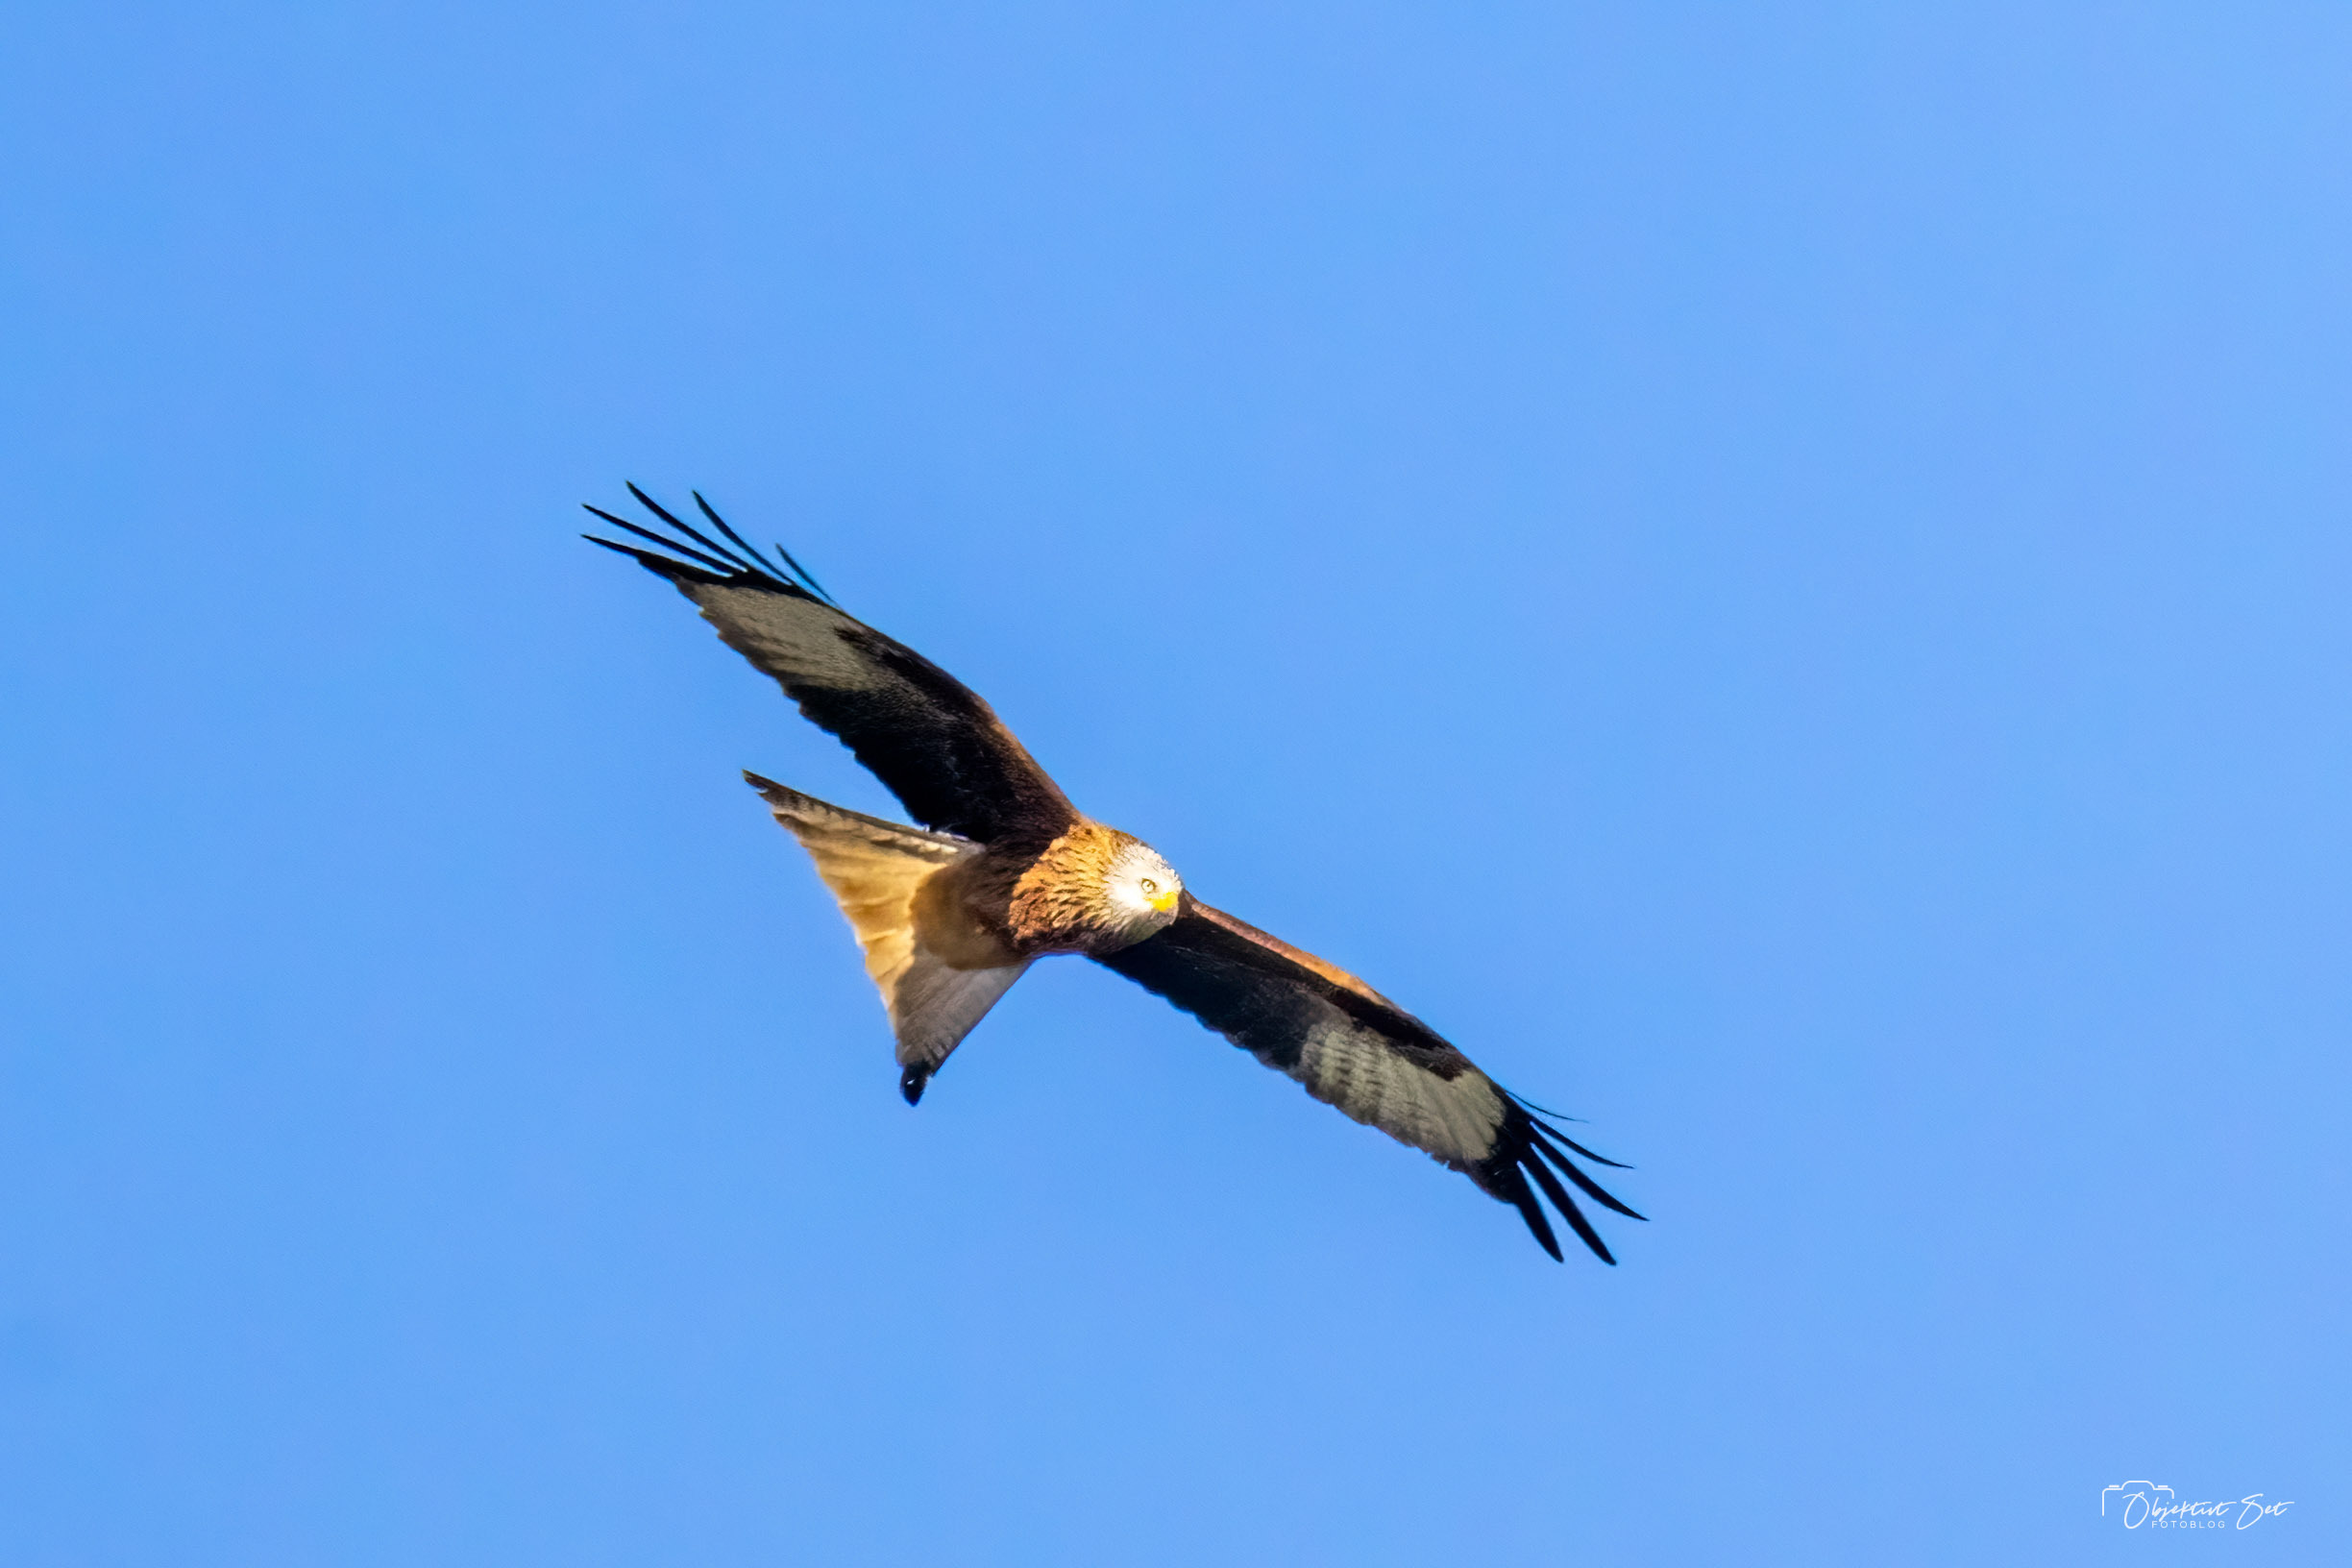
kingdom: Animalia
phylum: Chordata
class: Aves
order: Accipitriformes
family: Accipitridae
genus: Milvus
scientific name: Milvus milvus
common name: Rød glente
